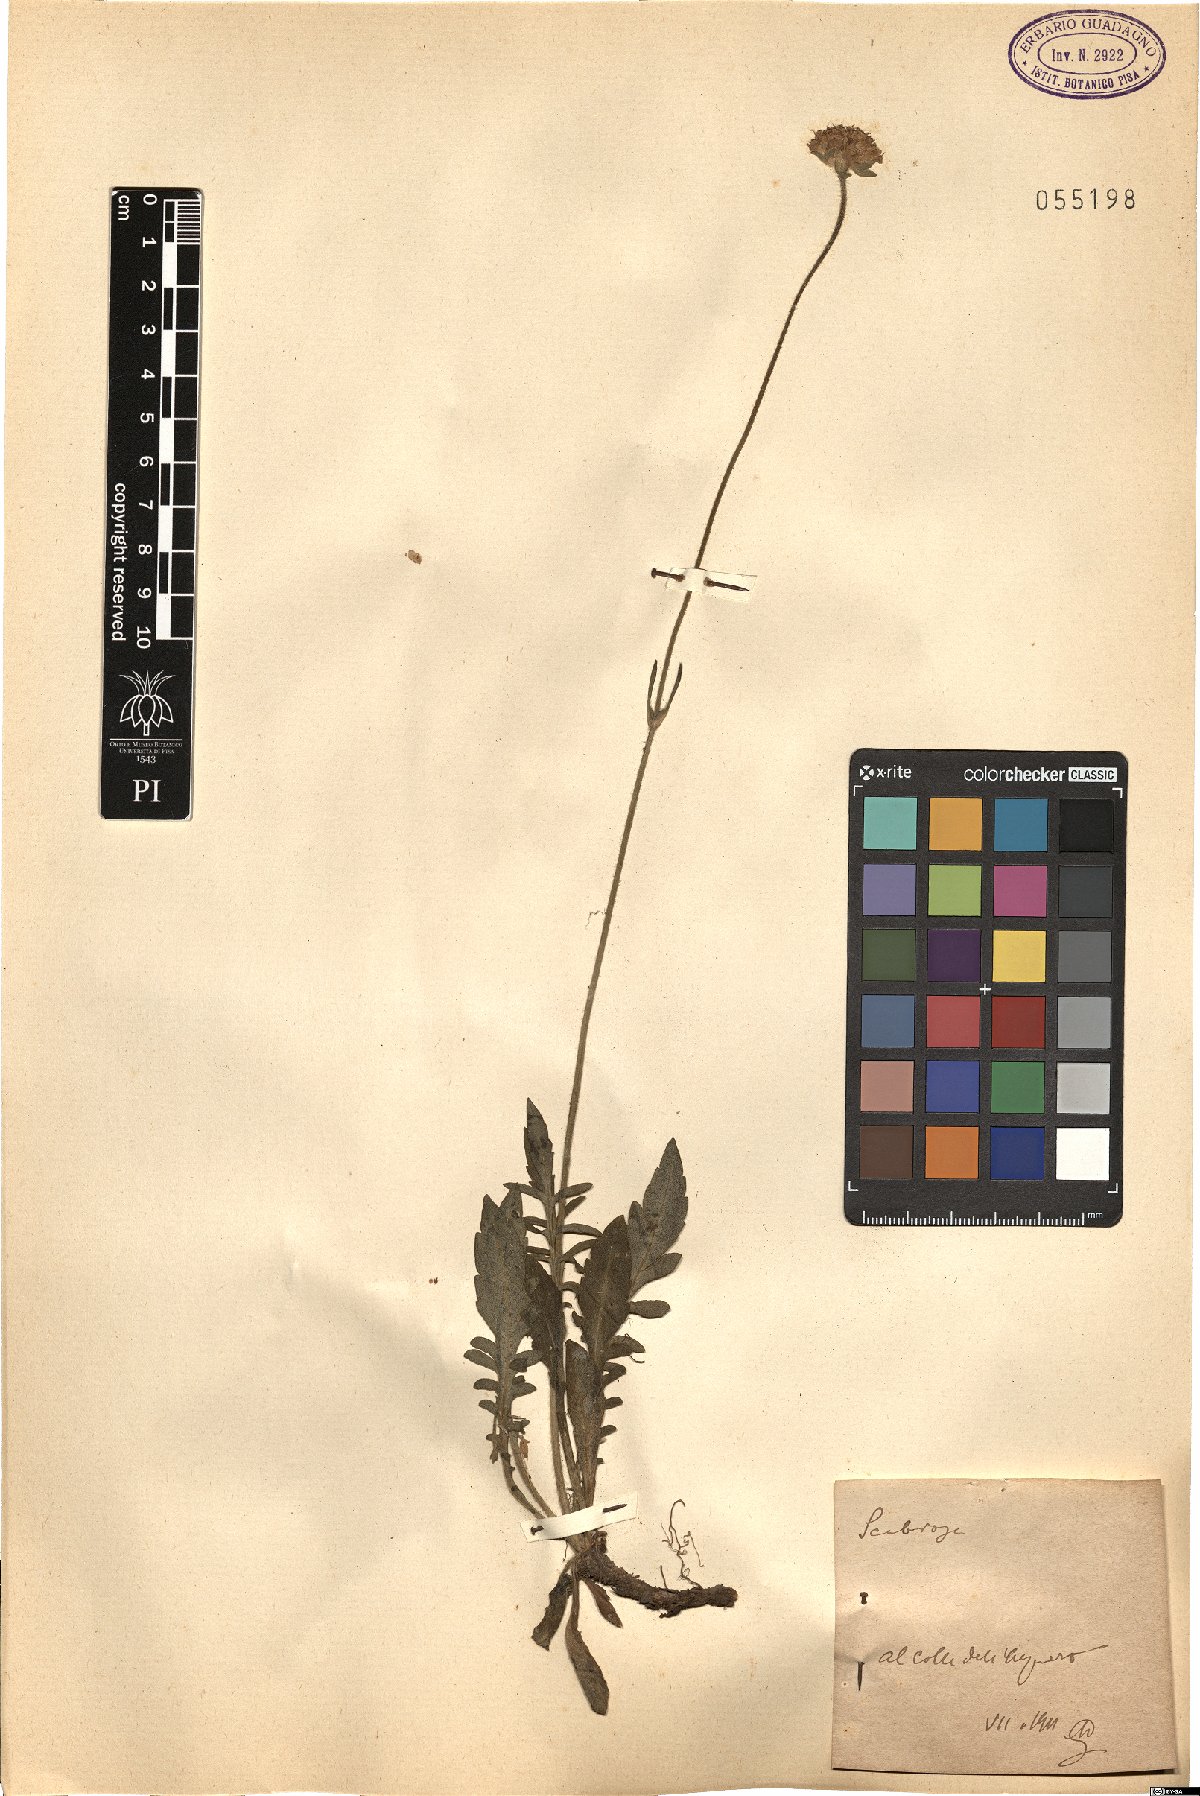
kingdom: Plantae
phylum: Tracheophyta
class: Magnoliopsida
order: Dipsacales
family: Caprifoliaceae
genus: Scabiosa
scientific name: Scabiosa
